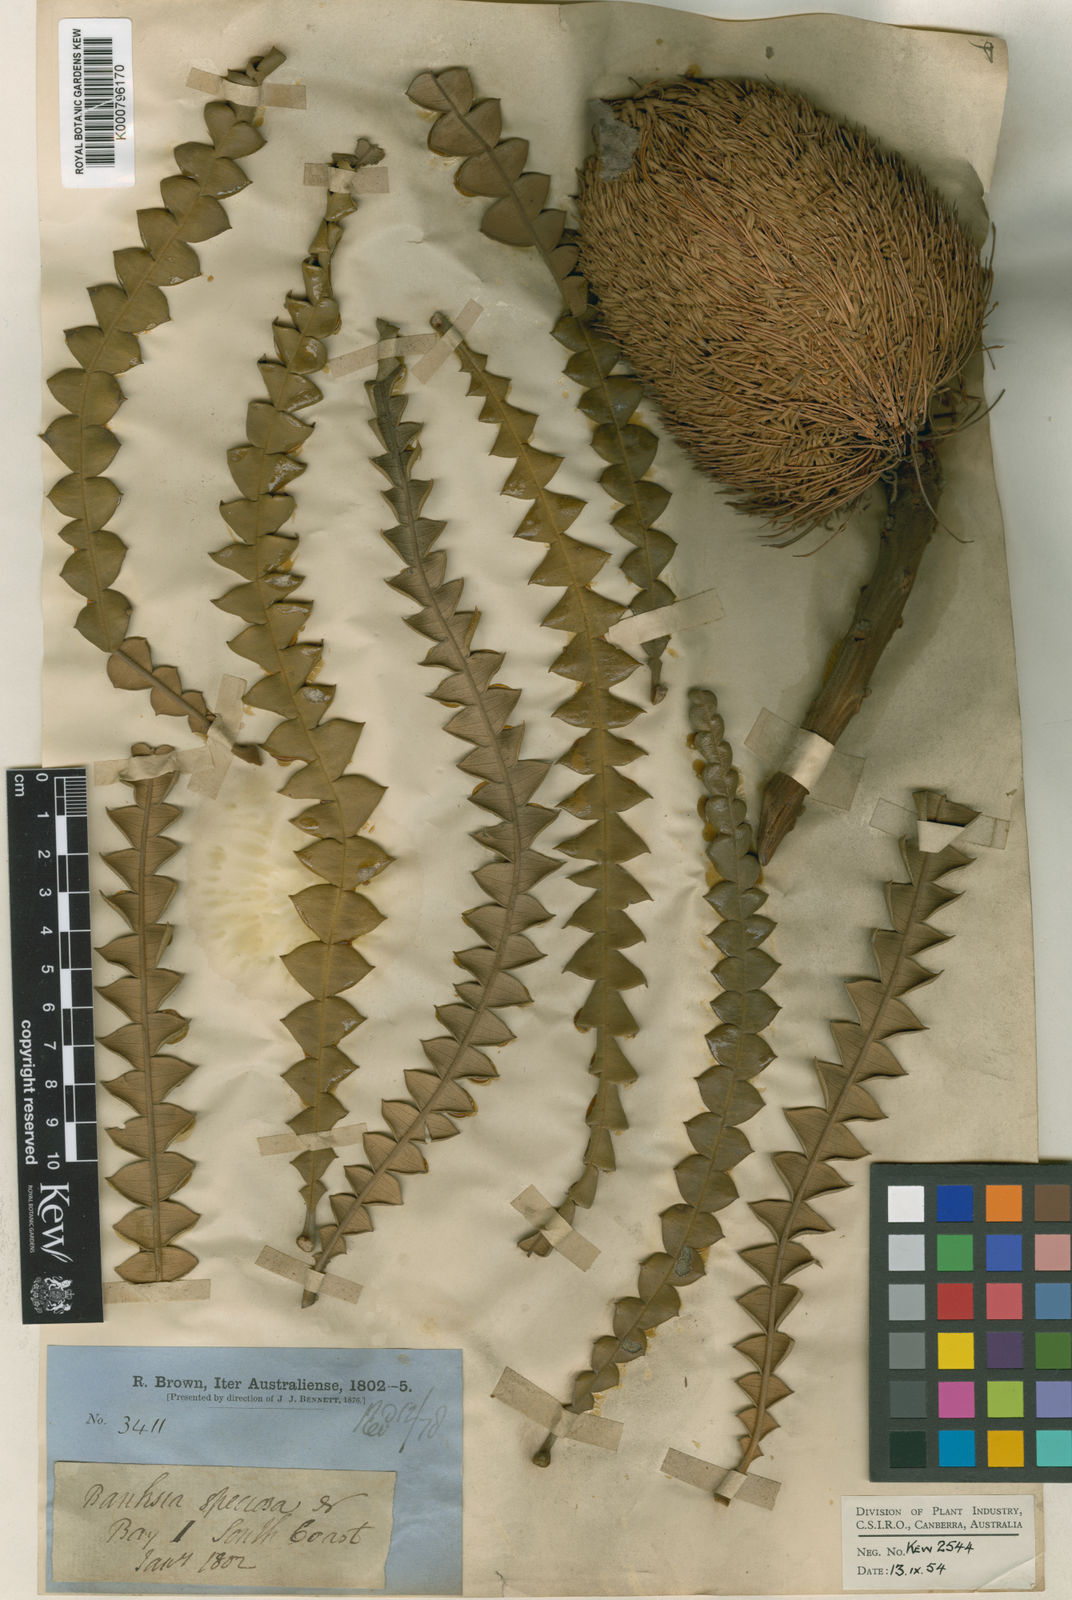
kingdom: Plantae
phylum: Tracheophyta
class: Magnoliopsida
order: Proteales
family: Proteaceae
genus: Banksia
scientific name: Banksia speciosa
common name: Showy banksia
